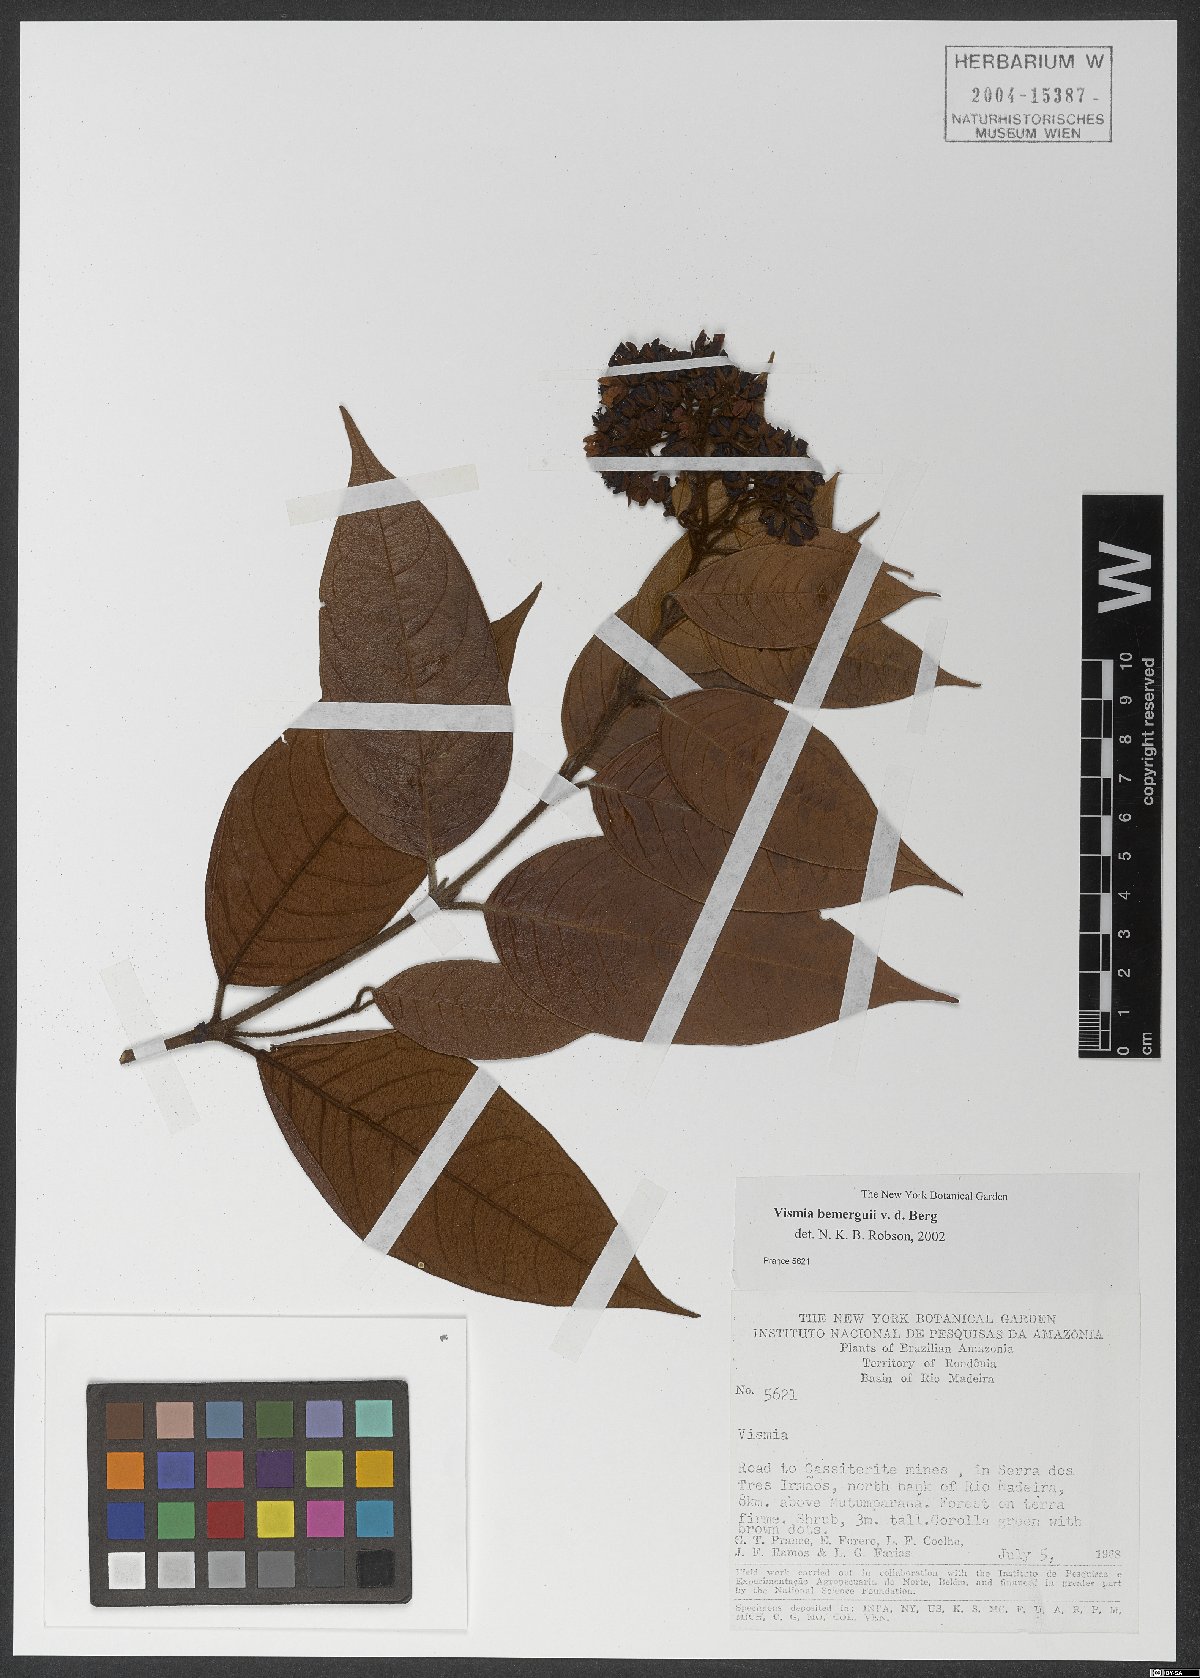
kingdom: Plantae
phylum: Tracheophyta
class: Magnoliopsida
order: Malpighiales
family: Hypericaceae
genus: Vismia
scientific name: Vismia bemerguii
